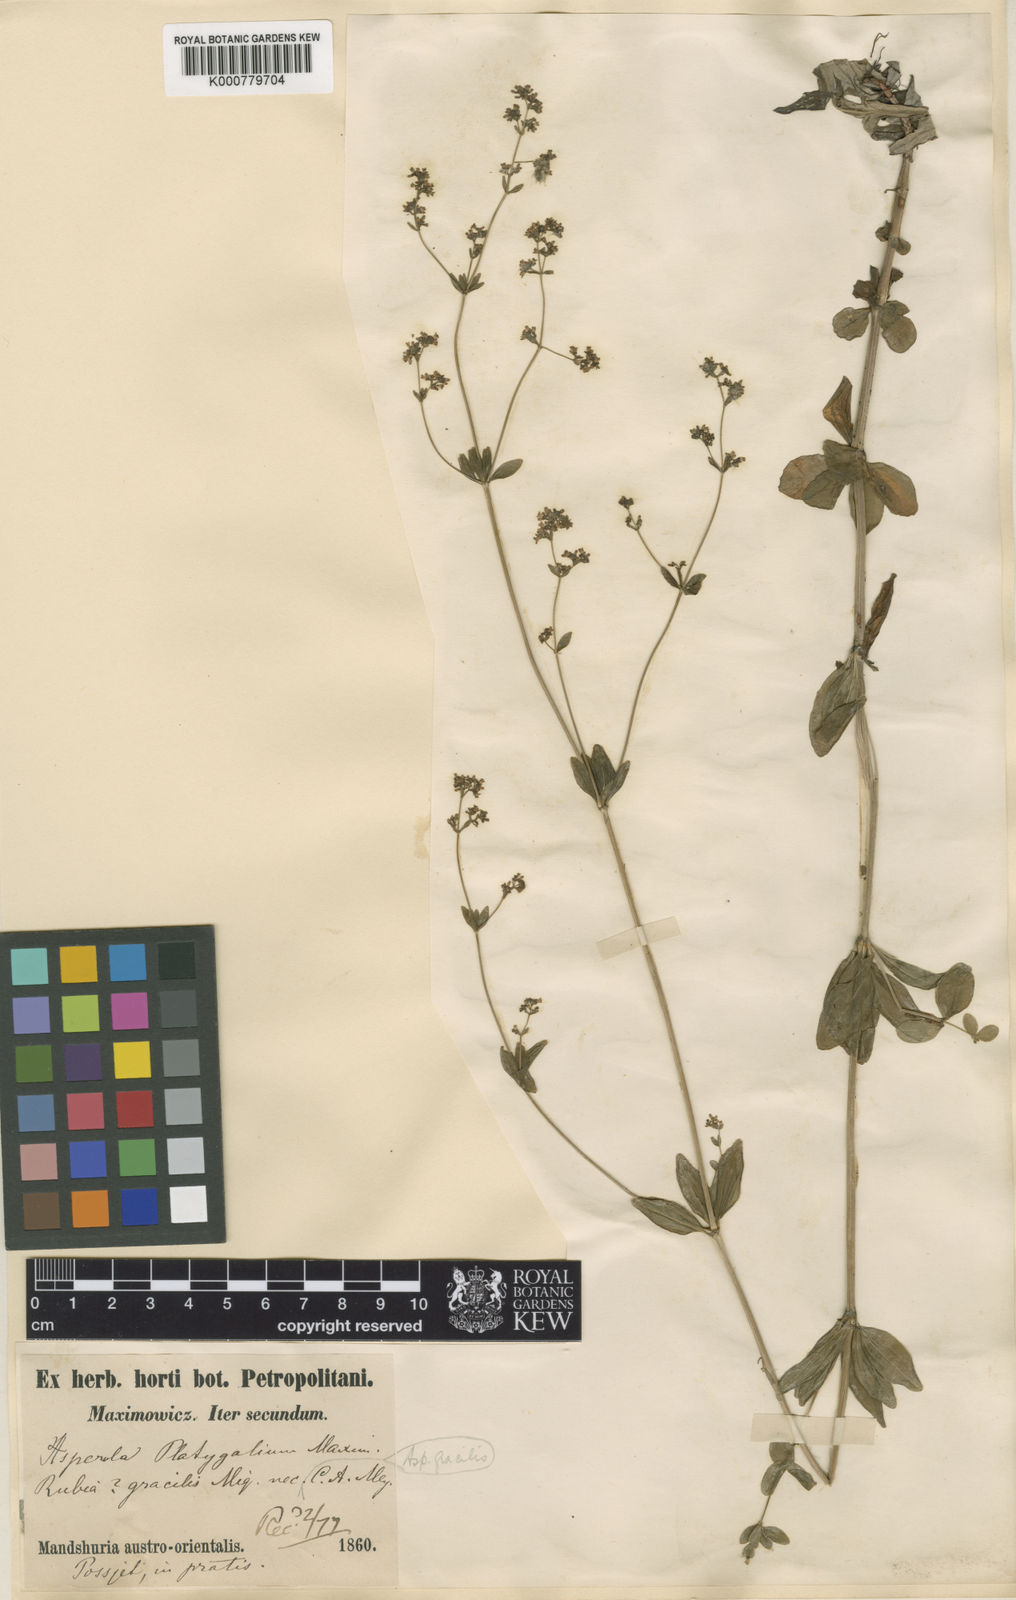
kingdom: Plantae
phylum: Tracheophyta
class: Magnoliopsida
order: Gentianales
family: Rubiaceae
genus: Galium
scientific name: Galium maximoviczii
